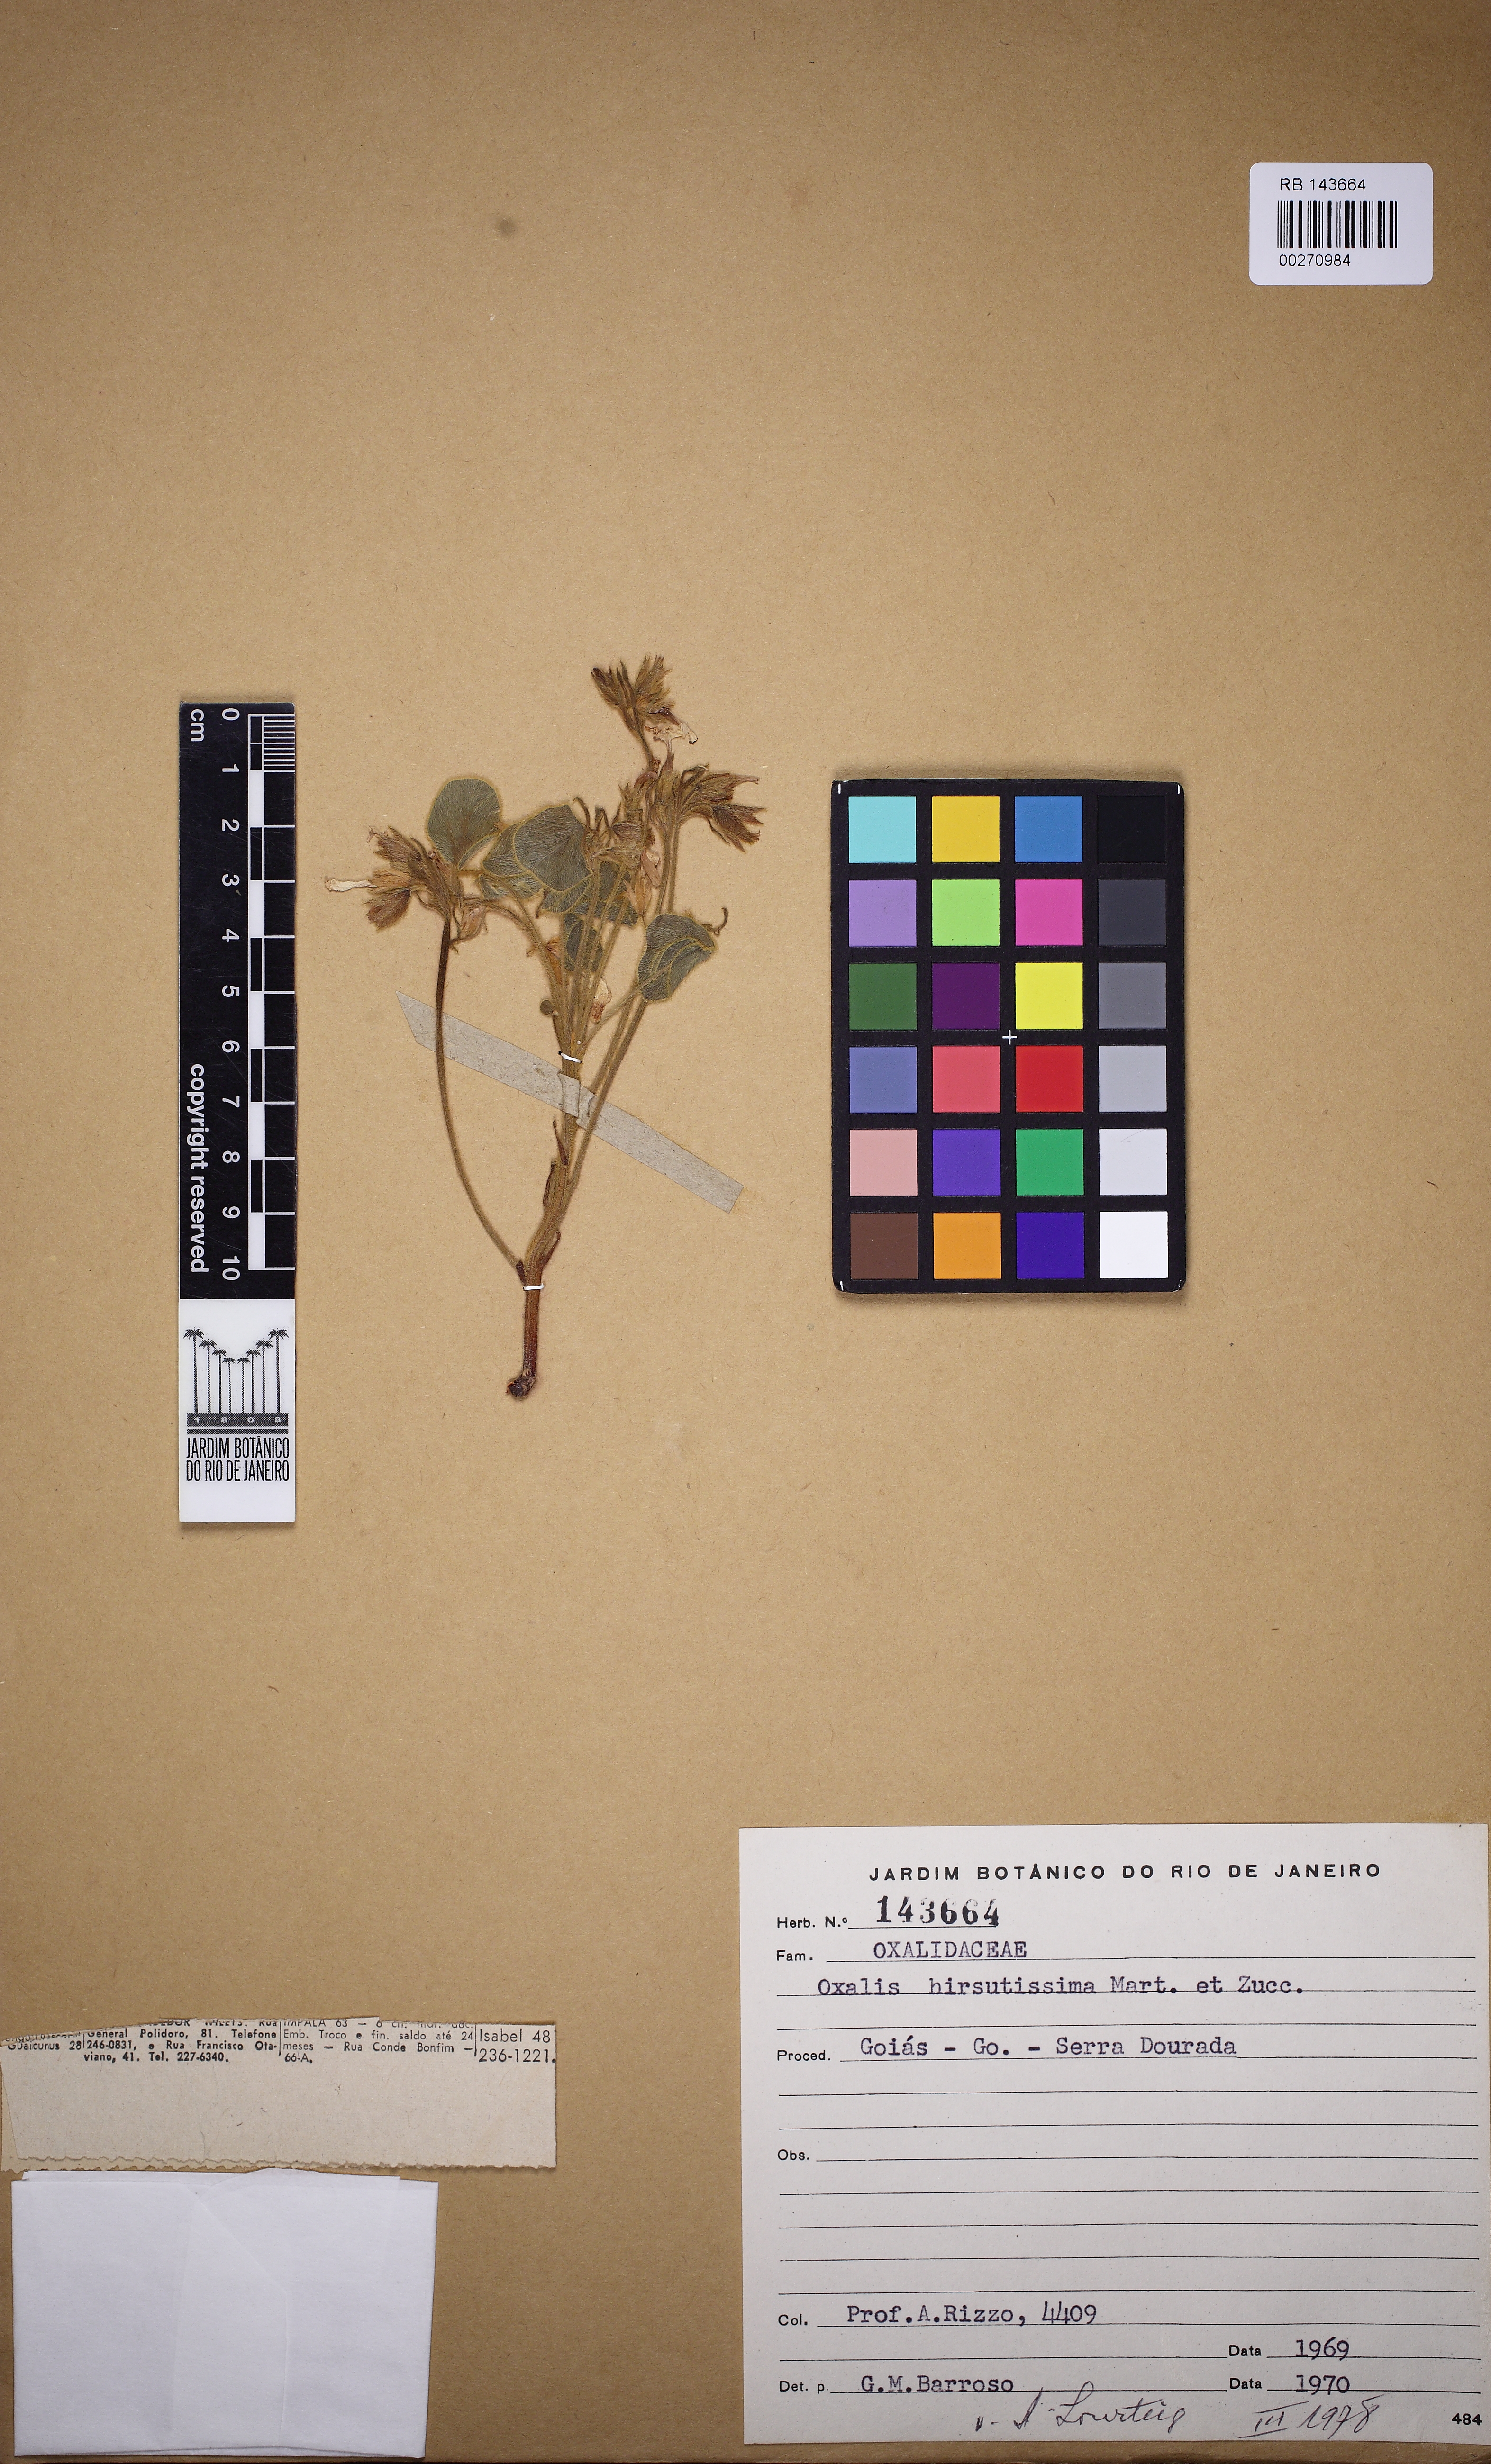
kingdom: Plantae
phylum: Tracheophyta
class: Magnoliopsida
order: Oxalidales
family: Oxalidaceae
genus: Oxalis
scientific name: Oxalis hirsutissima
